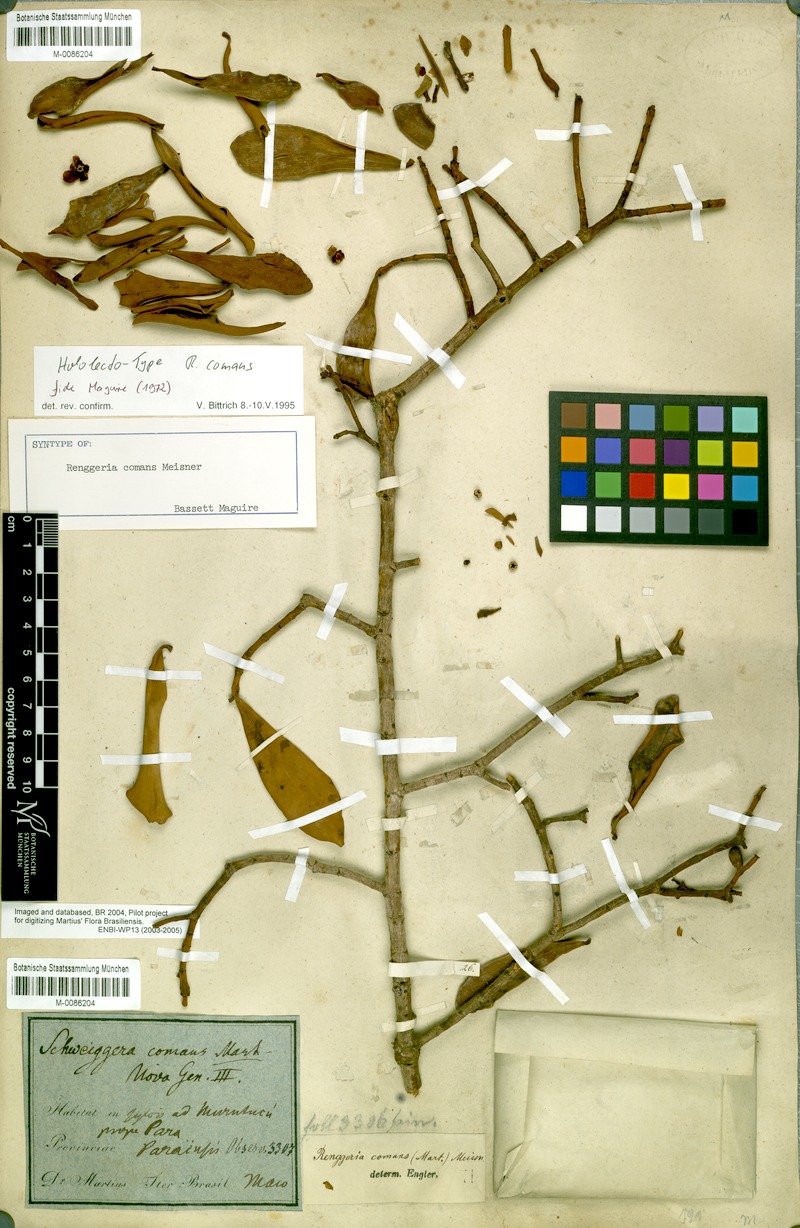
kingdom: Plantae
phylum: Tracheophyta
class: Magnoliopsida
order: Malpighiales
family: Clusiaceae
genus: Clusia
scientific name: Clusia comans
